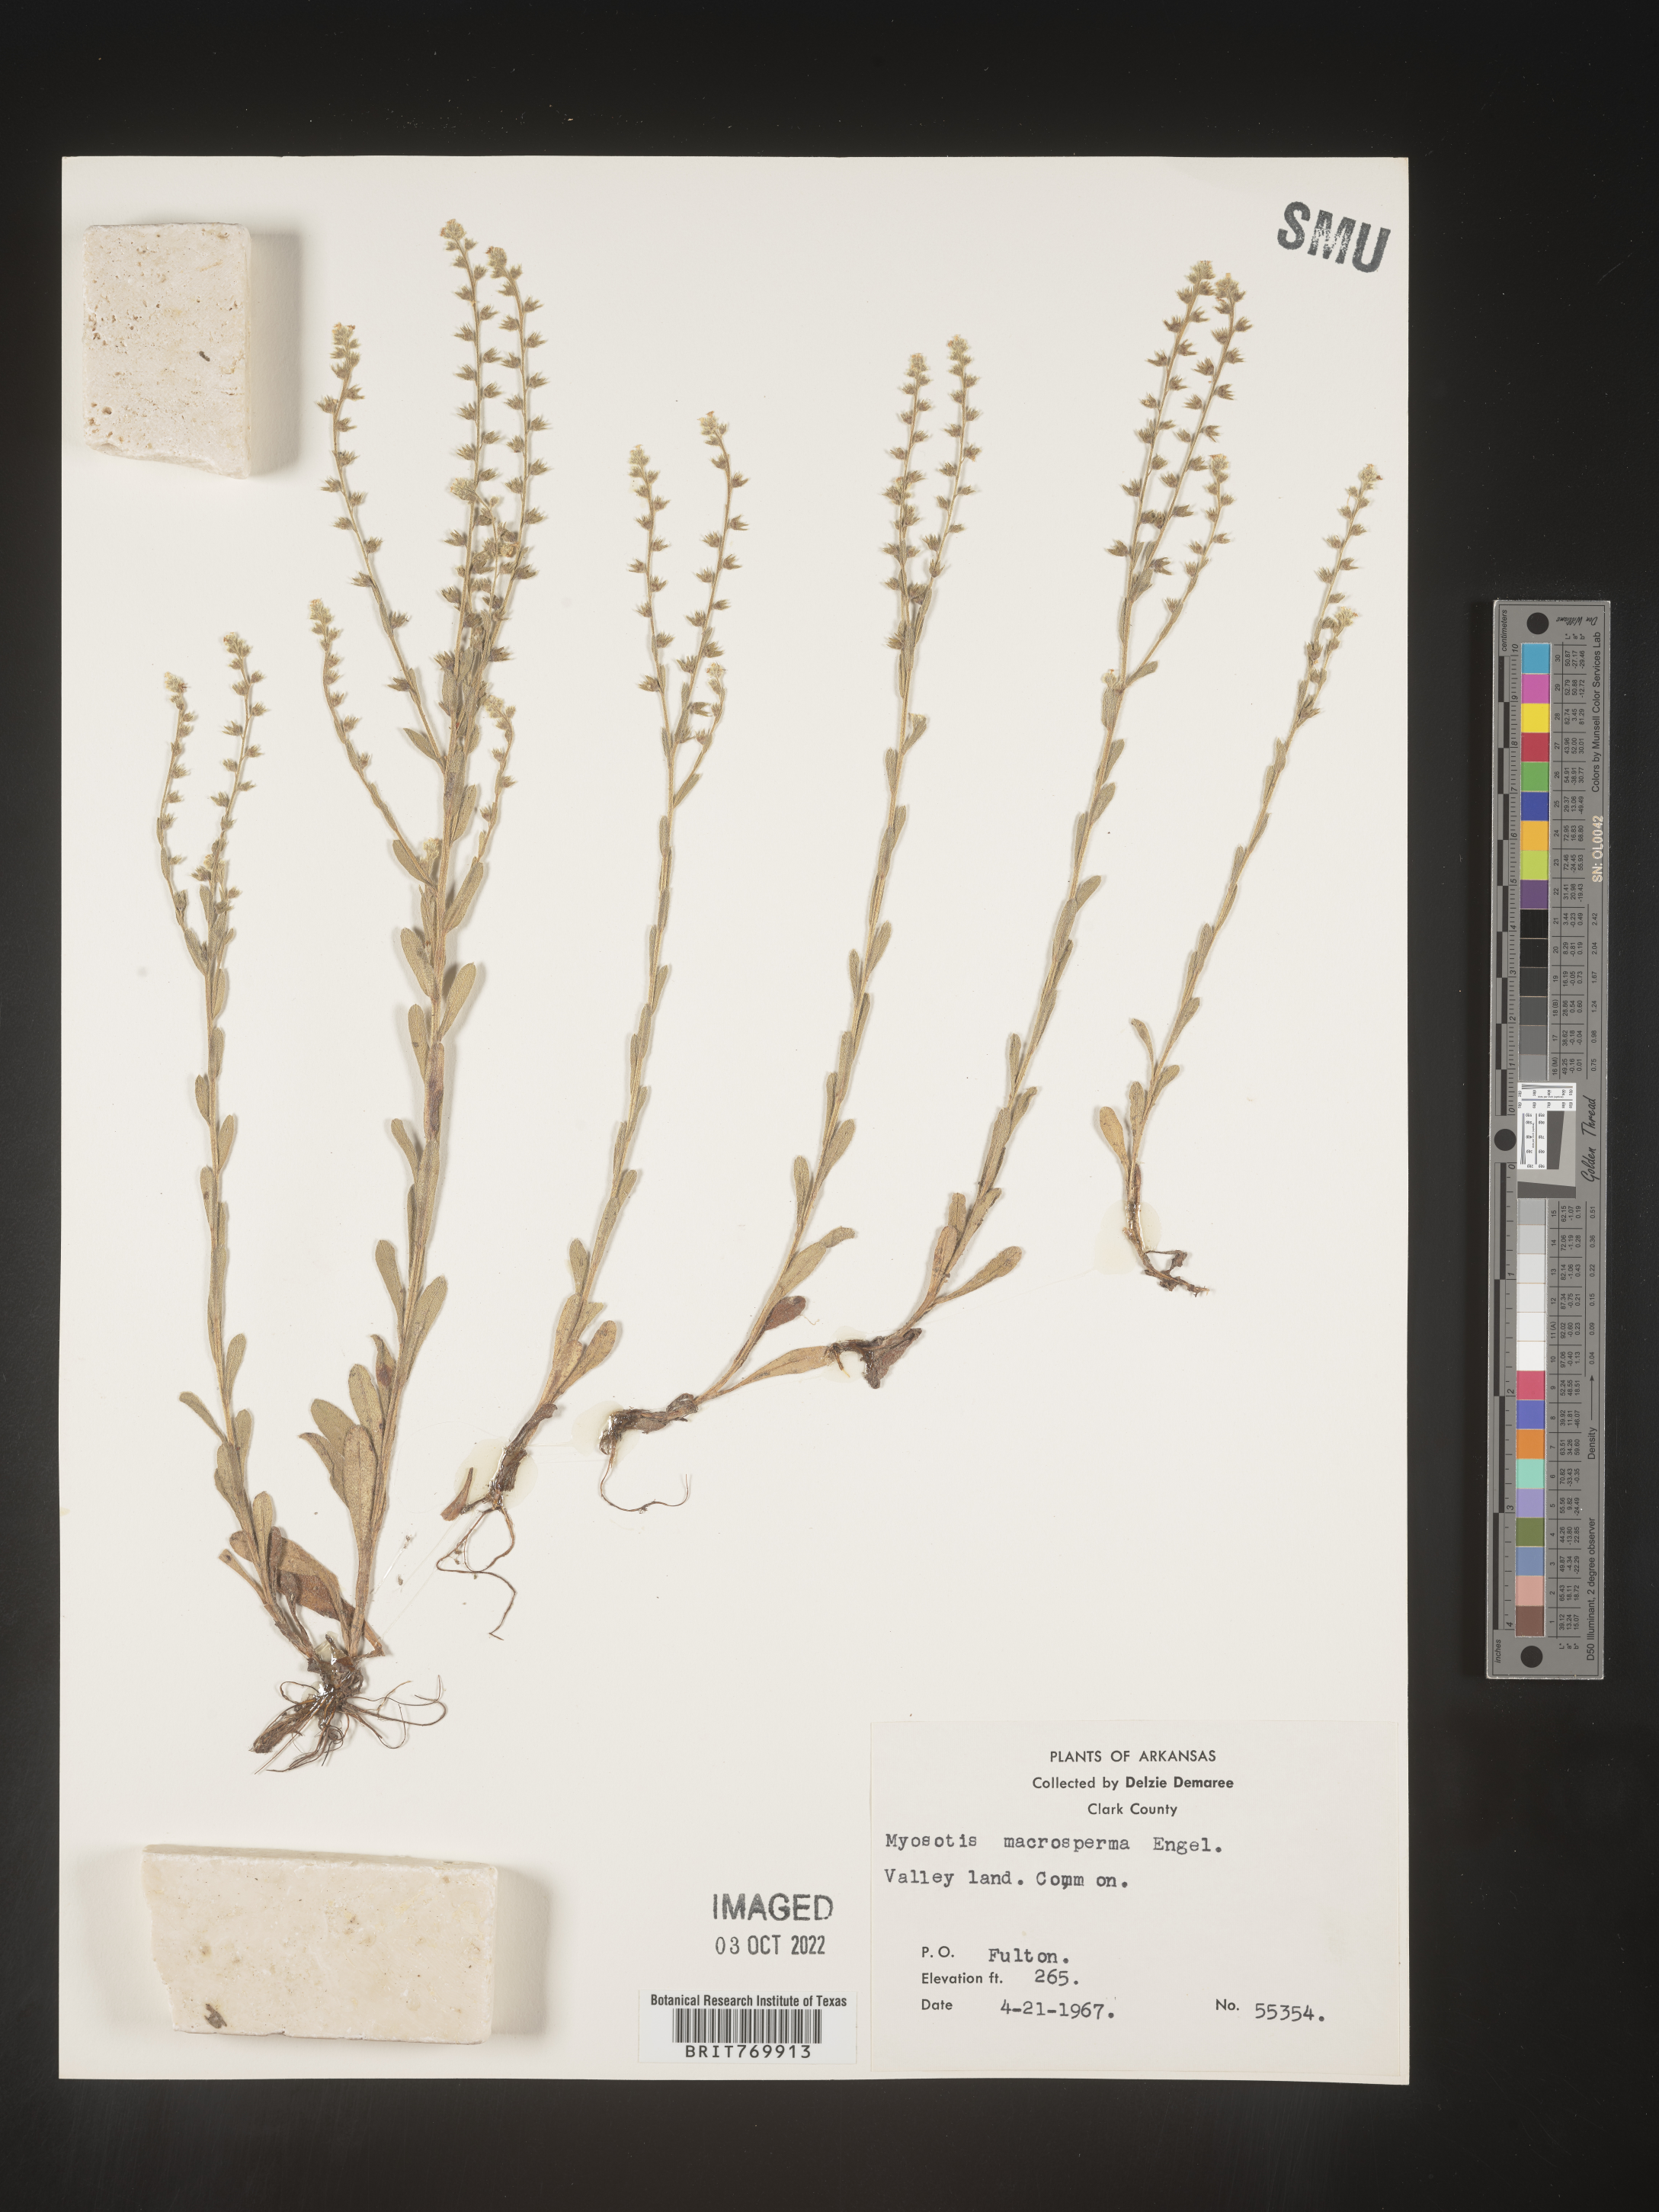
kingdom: Plantae
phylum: Tracheophyta
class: Magnoliopsida
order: Boraginales
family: Boraginaceae
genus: Myosotis
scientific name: Myosotis verna
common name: Early forget-me-not
